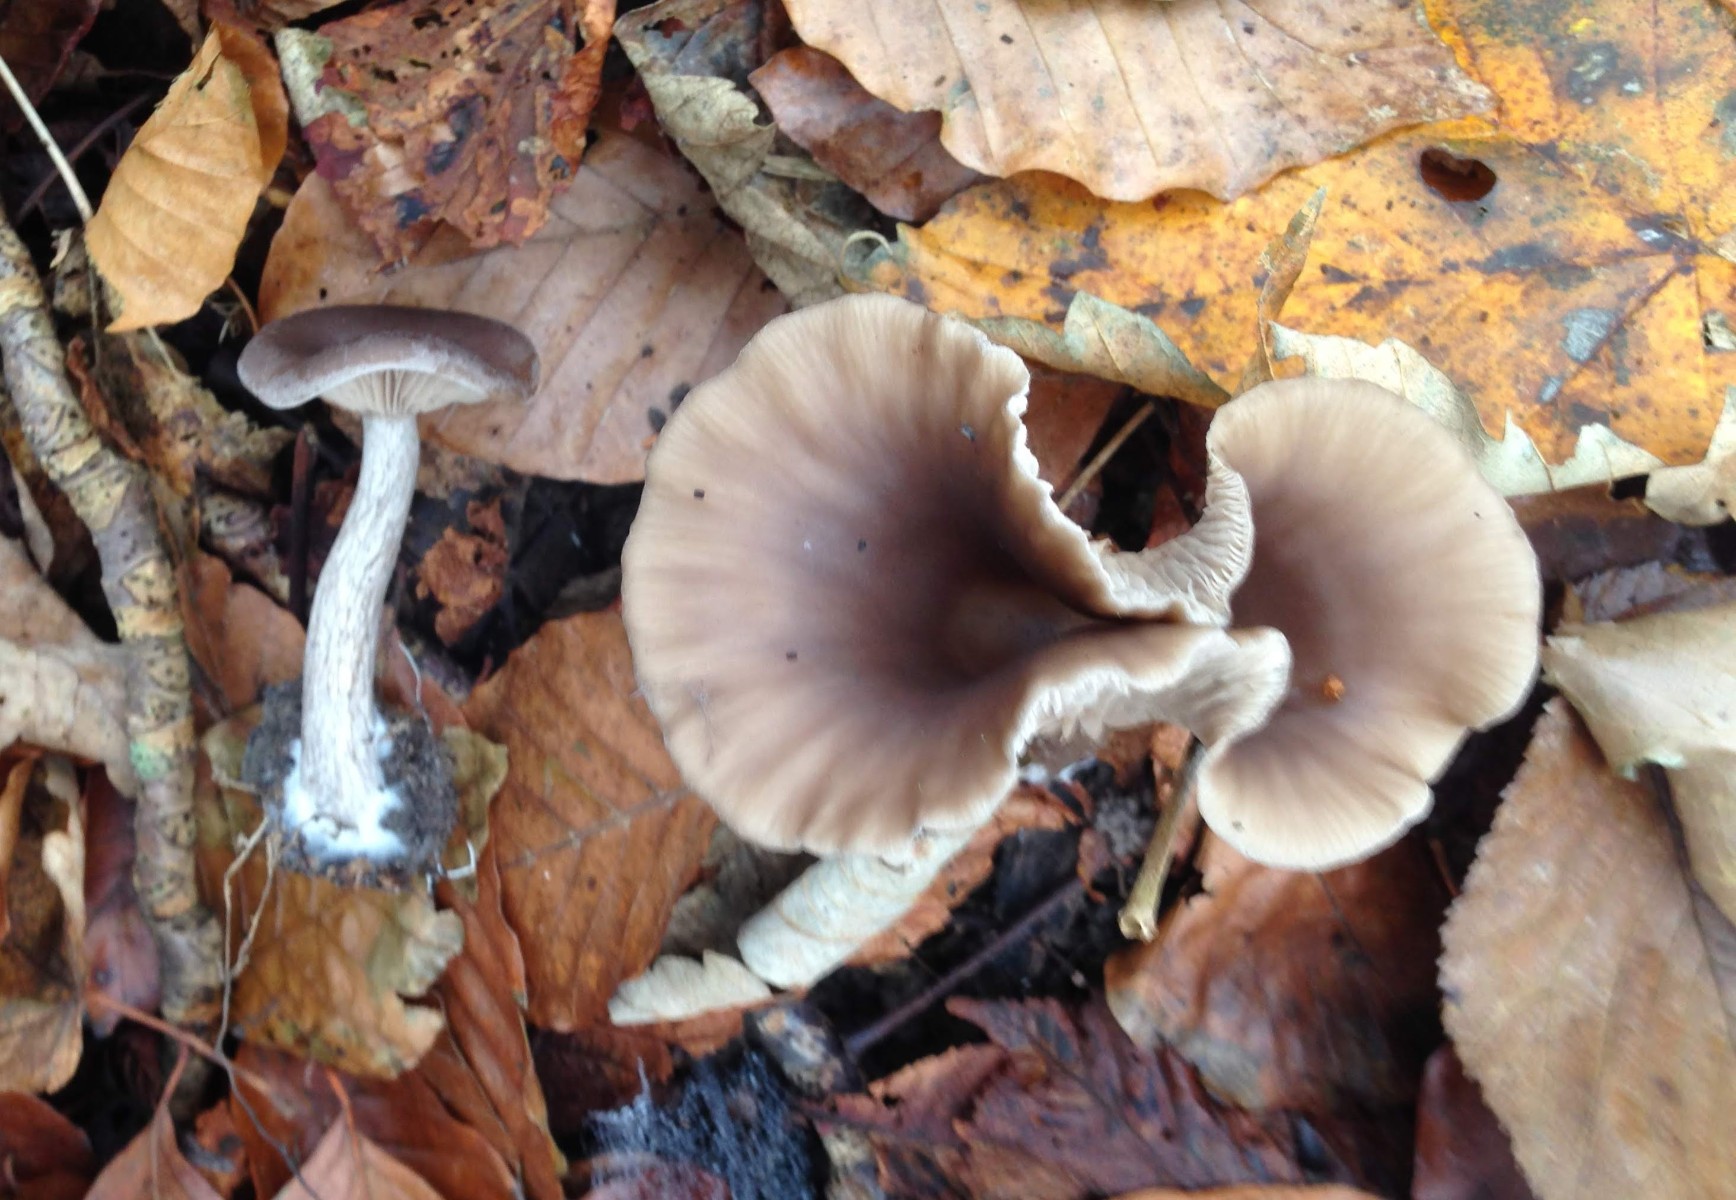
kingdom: Fungi
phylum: Basidiomycota
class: Agaricomycetes
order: Agaricales
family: Pseudoclitocybaceae
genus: Pseudoclitocybe
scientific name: Pseudoclitocybe cyathiformis
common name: almindelig bægertragthat
